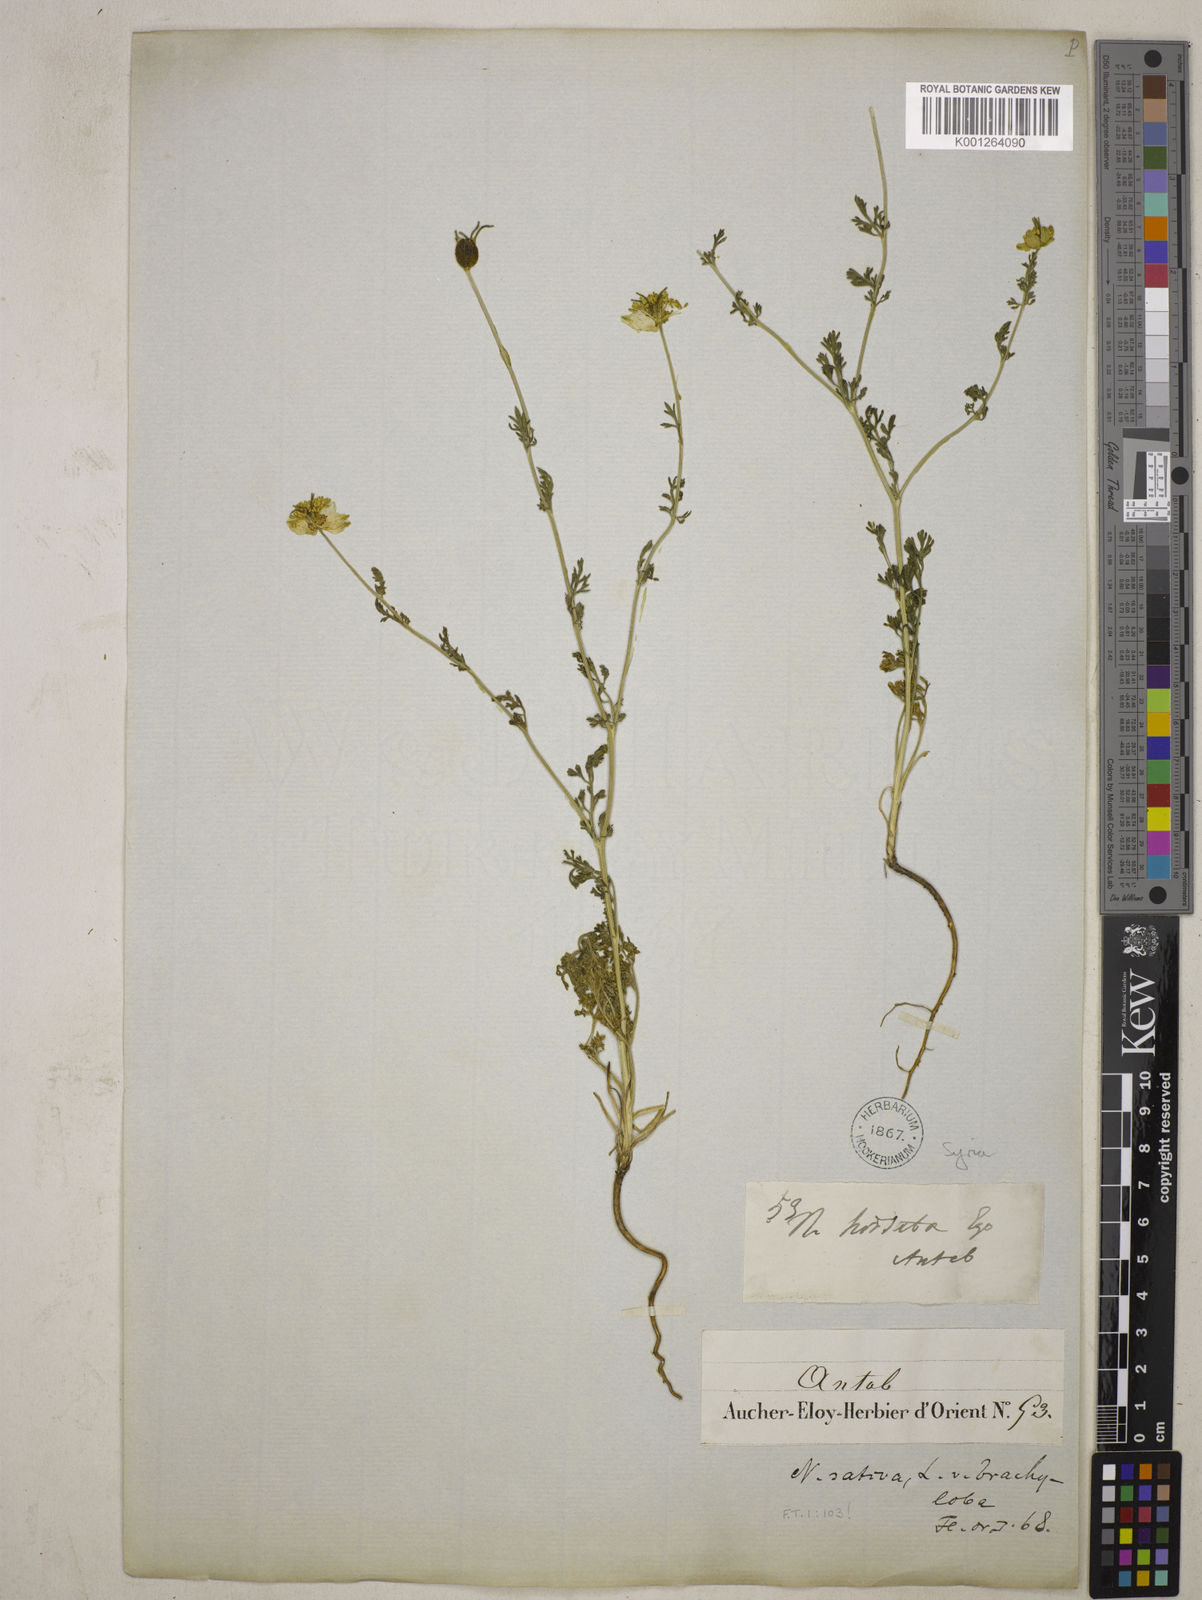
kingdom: Plantae
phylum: Tracheophyta
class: Magnoliopsida
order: Ranunculales
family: Ranunculaceae
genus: Nigella
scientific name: Nigella sativa
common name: Black-cumin
